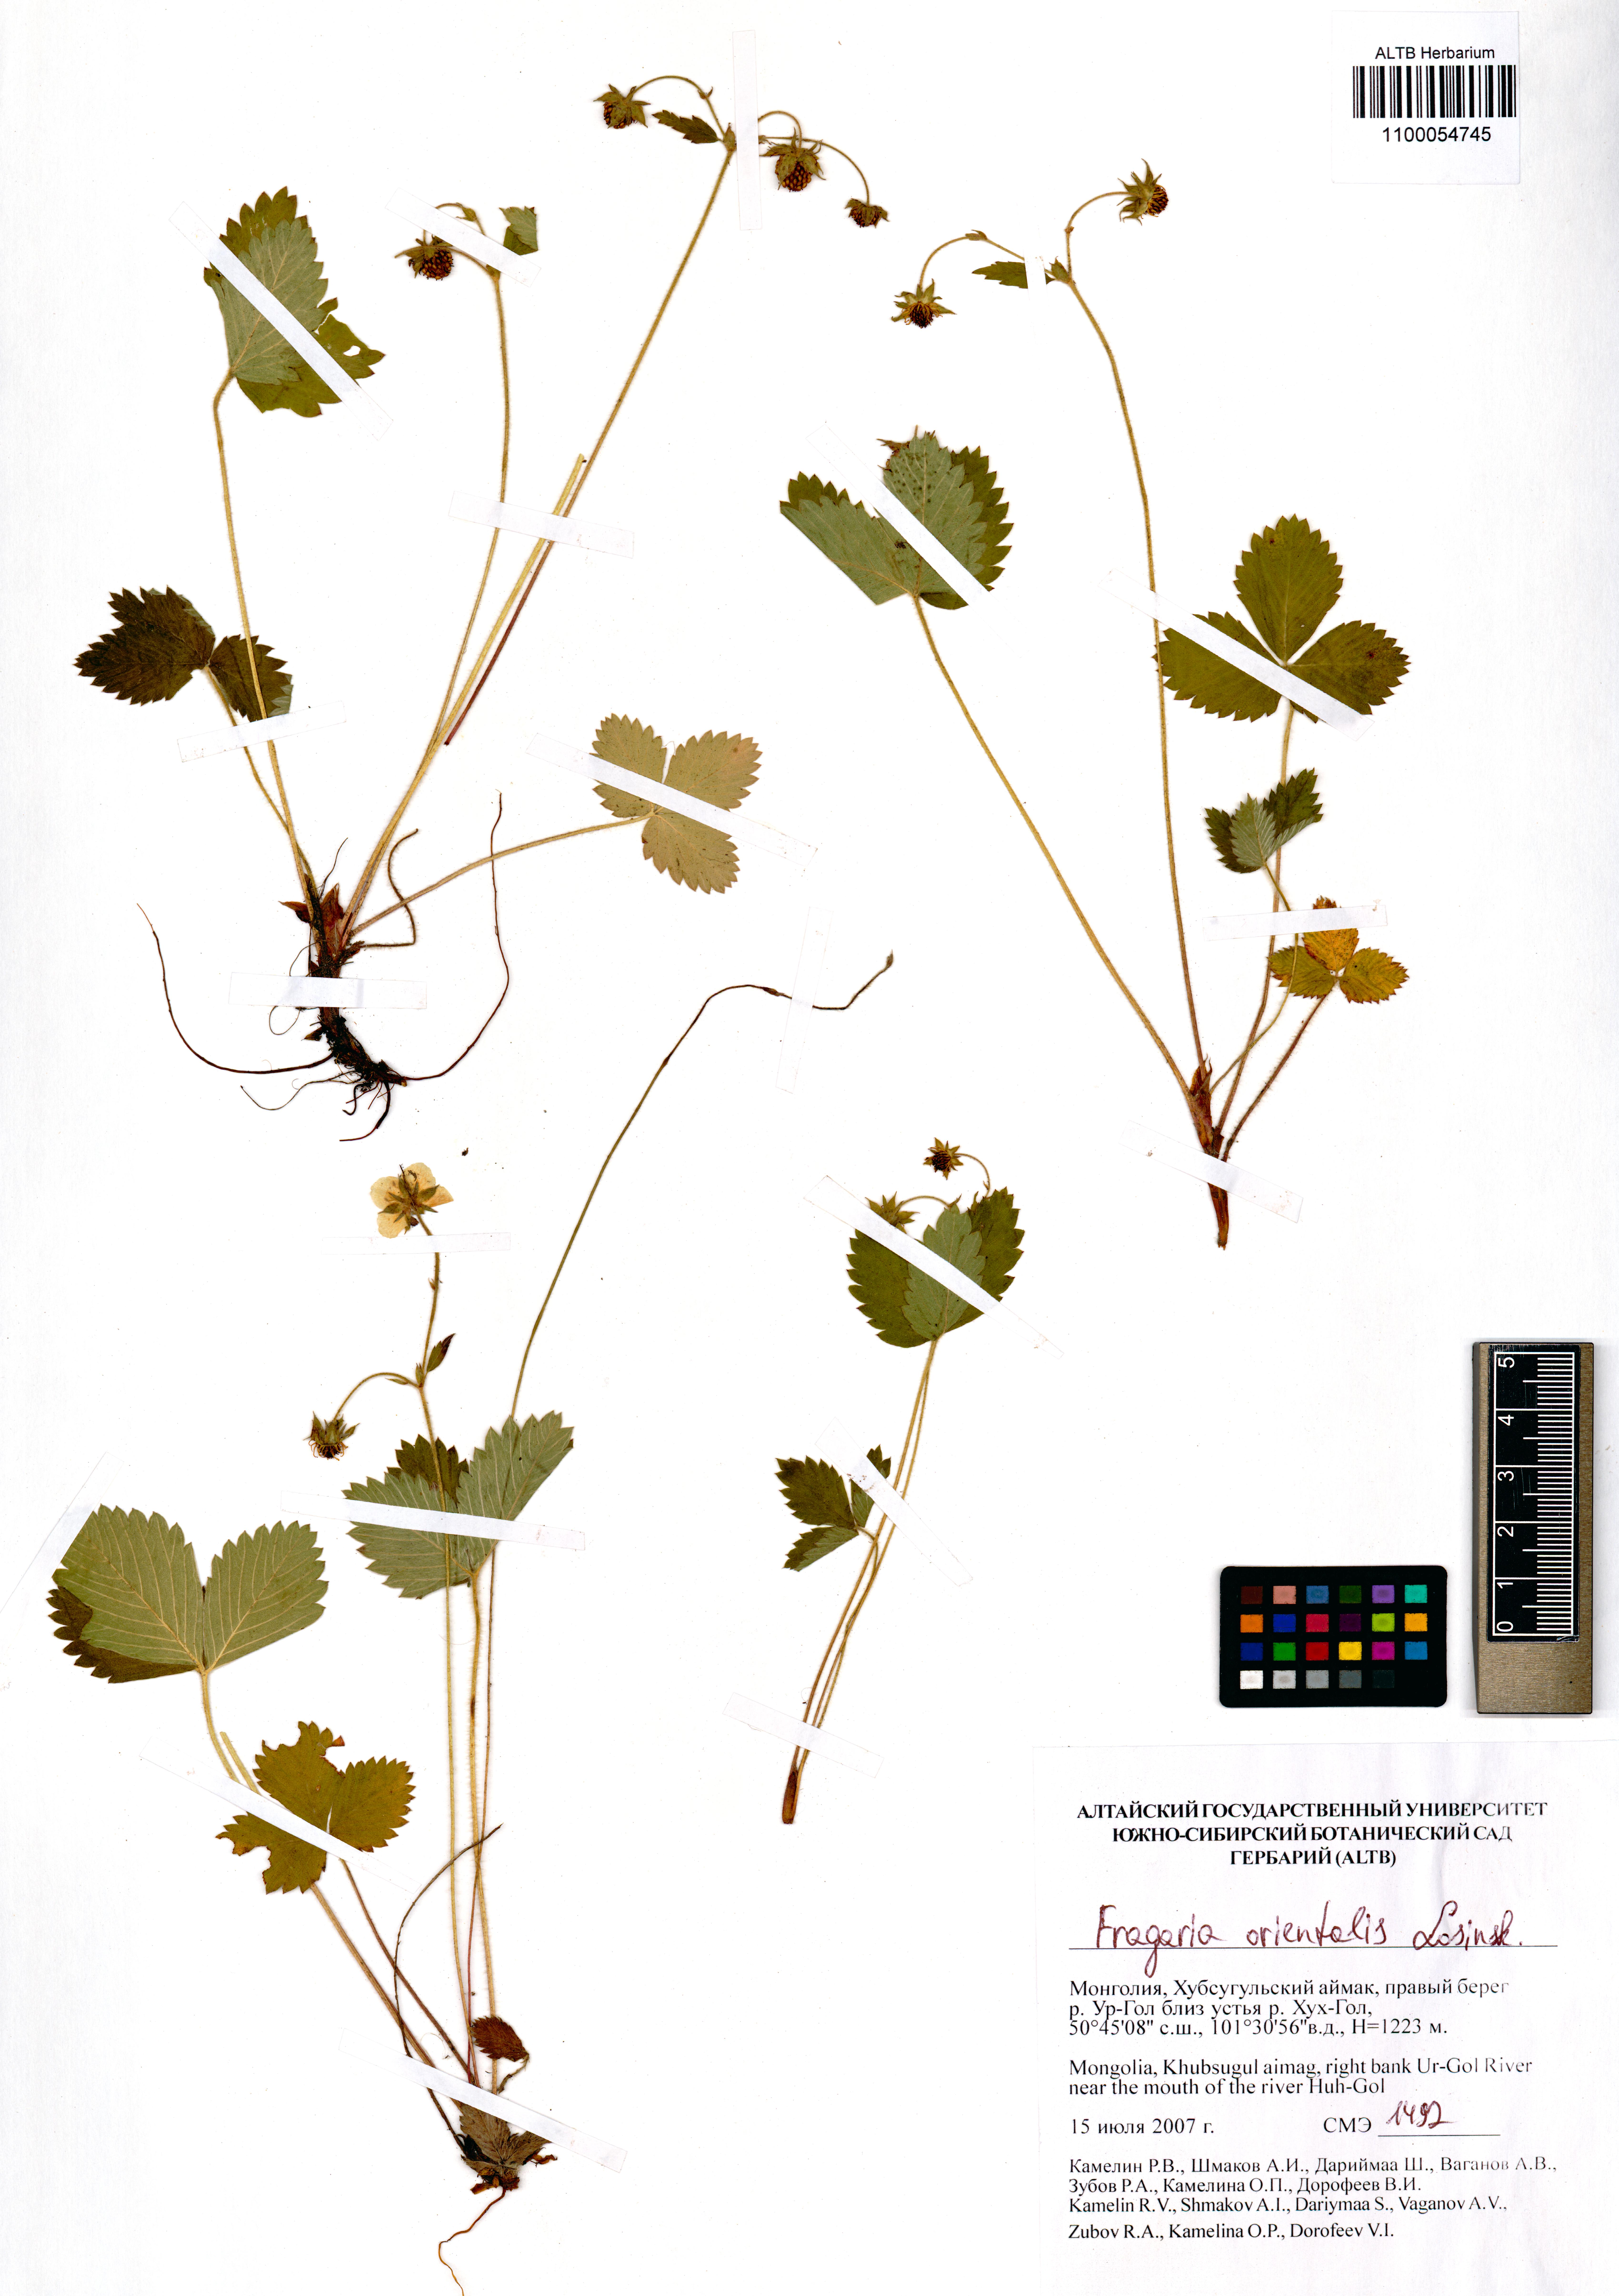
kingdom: Plantae
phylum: Tracheophyta
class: Magnoliopsida
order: Rosales
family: Rosaceae
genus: Fragaria
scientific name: Fragaria orientalis
